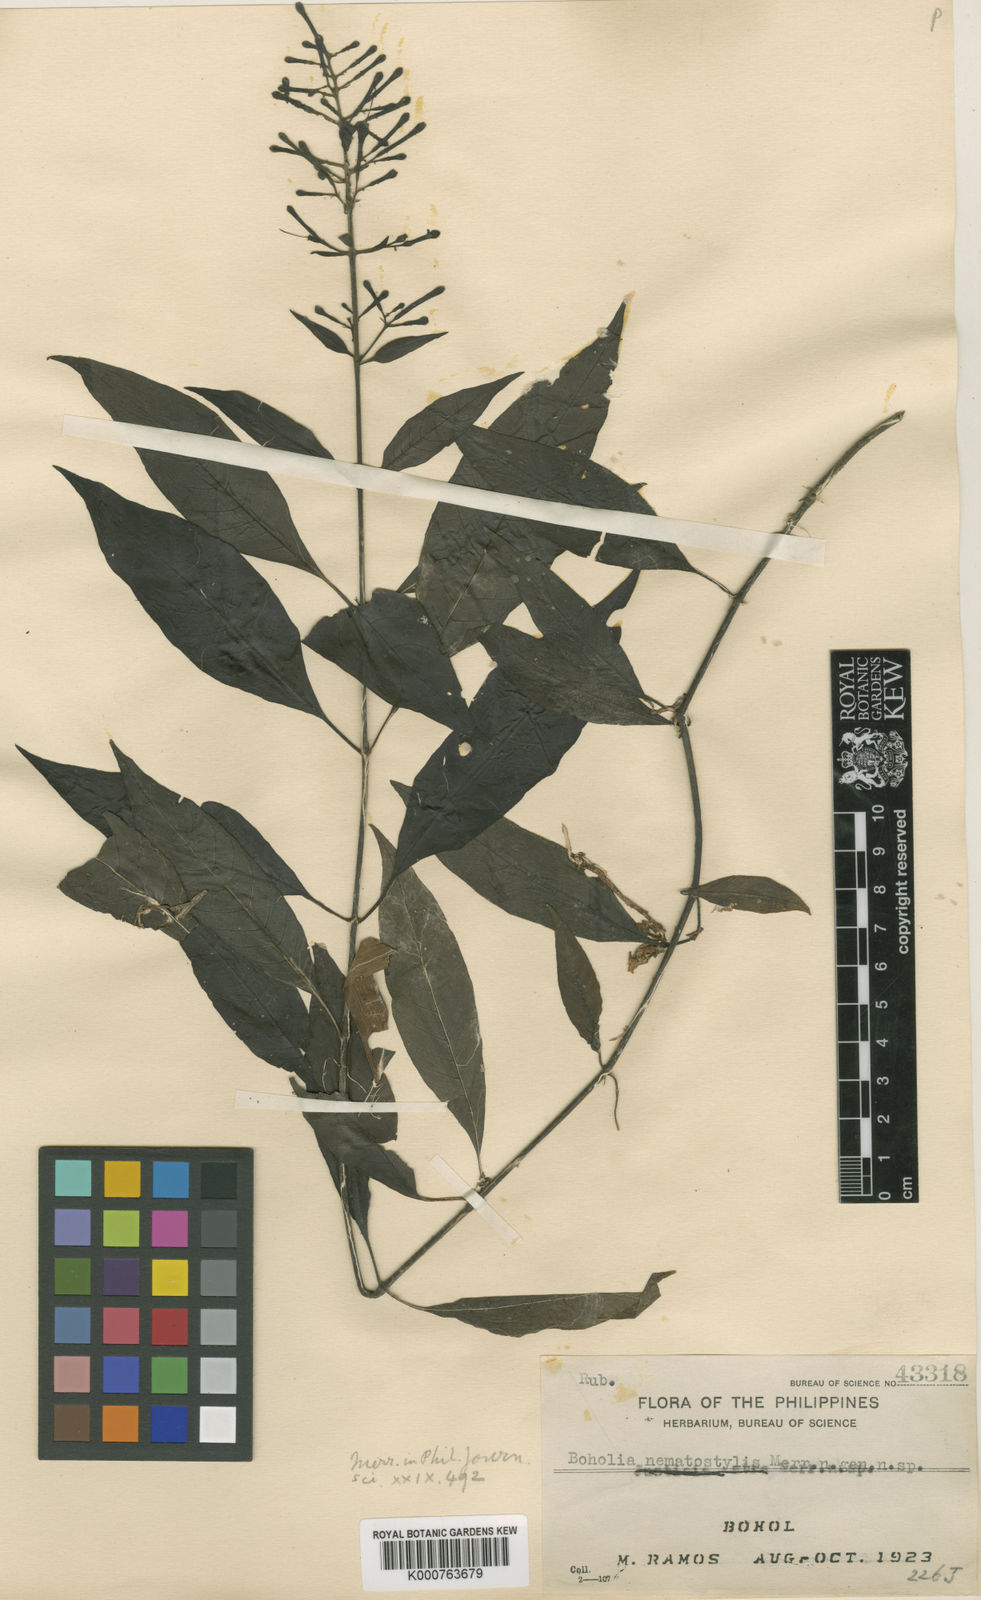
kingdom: Plantae
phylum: Tracheophyta
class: Magnoliopsida
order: Gentianales
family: Rubiaceae
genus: Boholia
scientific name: Boholia nematostylis
